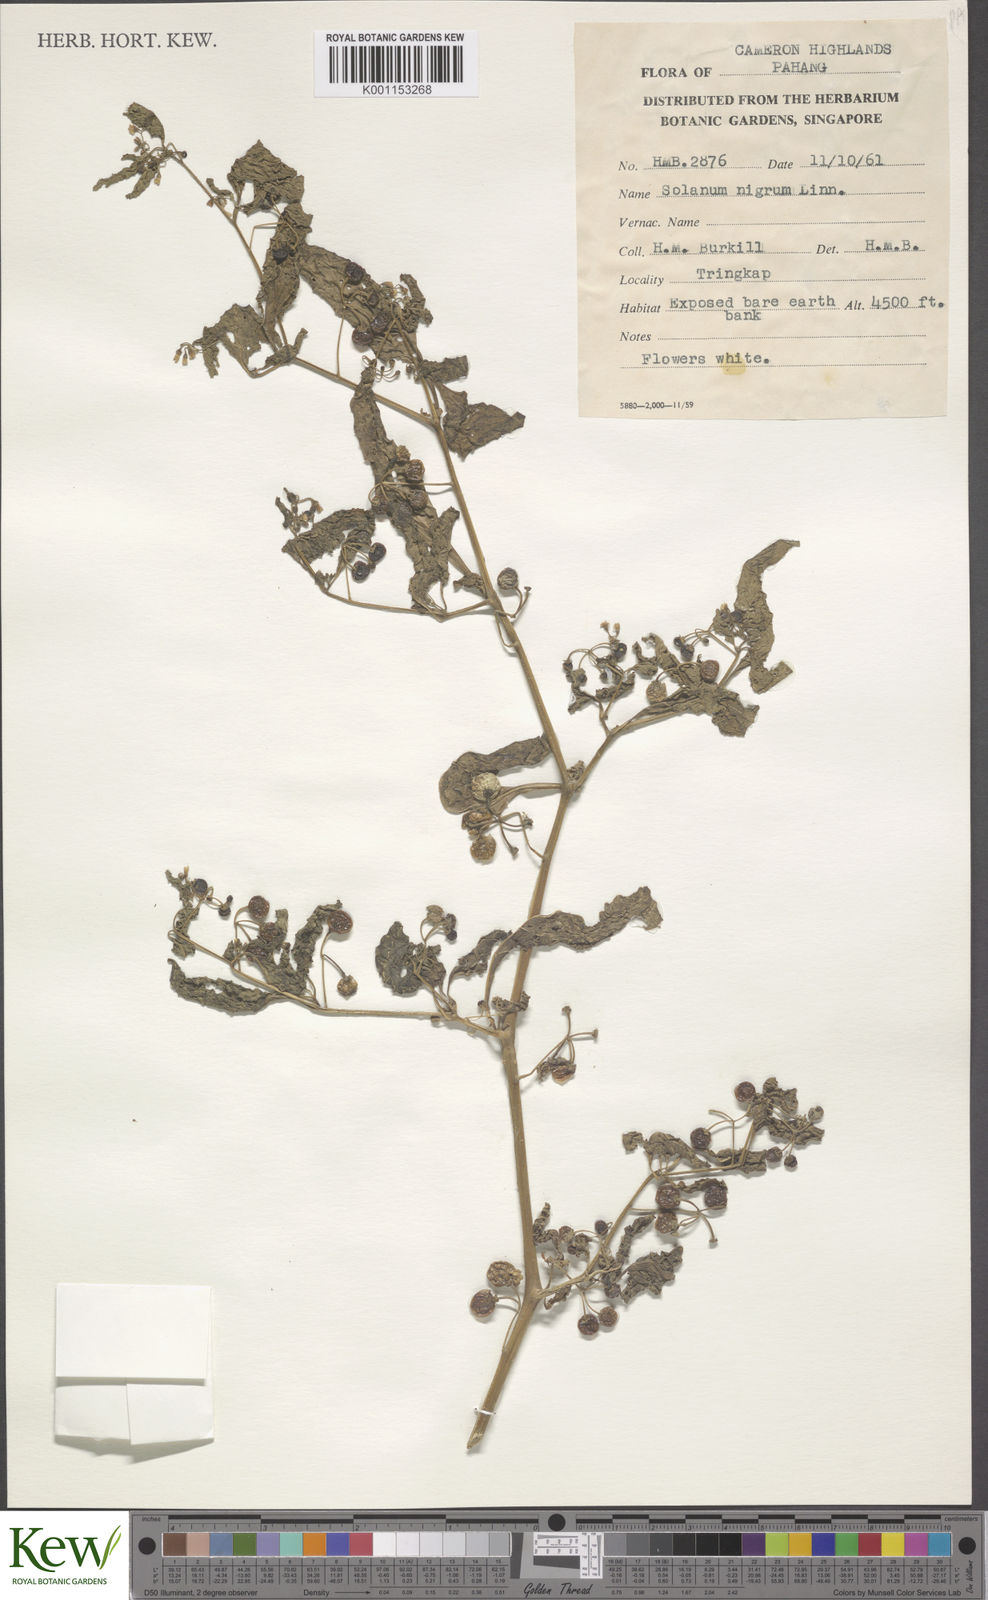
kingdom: Plantae
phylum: Tracheophyta
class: Magnoliopsida
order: Solanales
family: Solanaceae
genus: Solanum
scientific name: Solanum americanum
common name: American black nightshade
